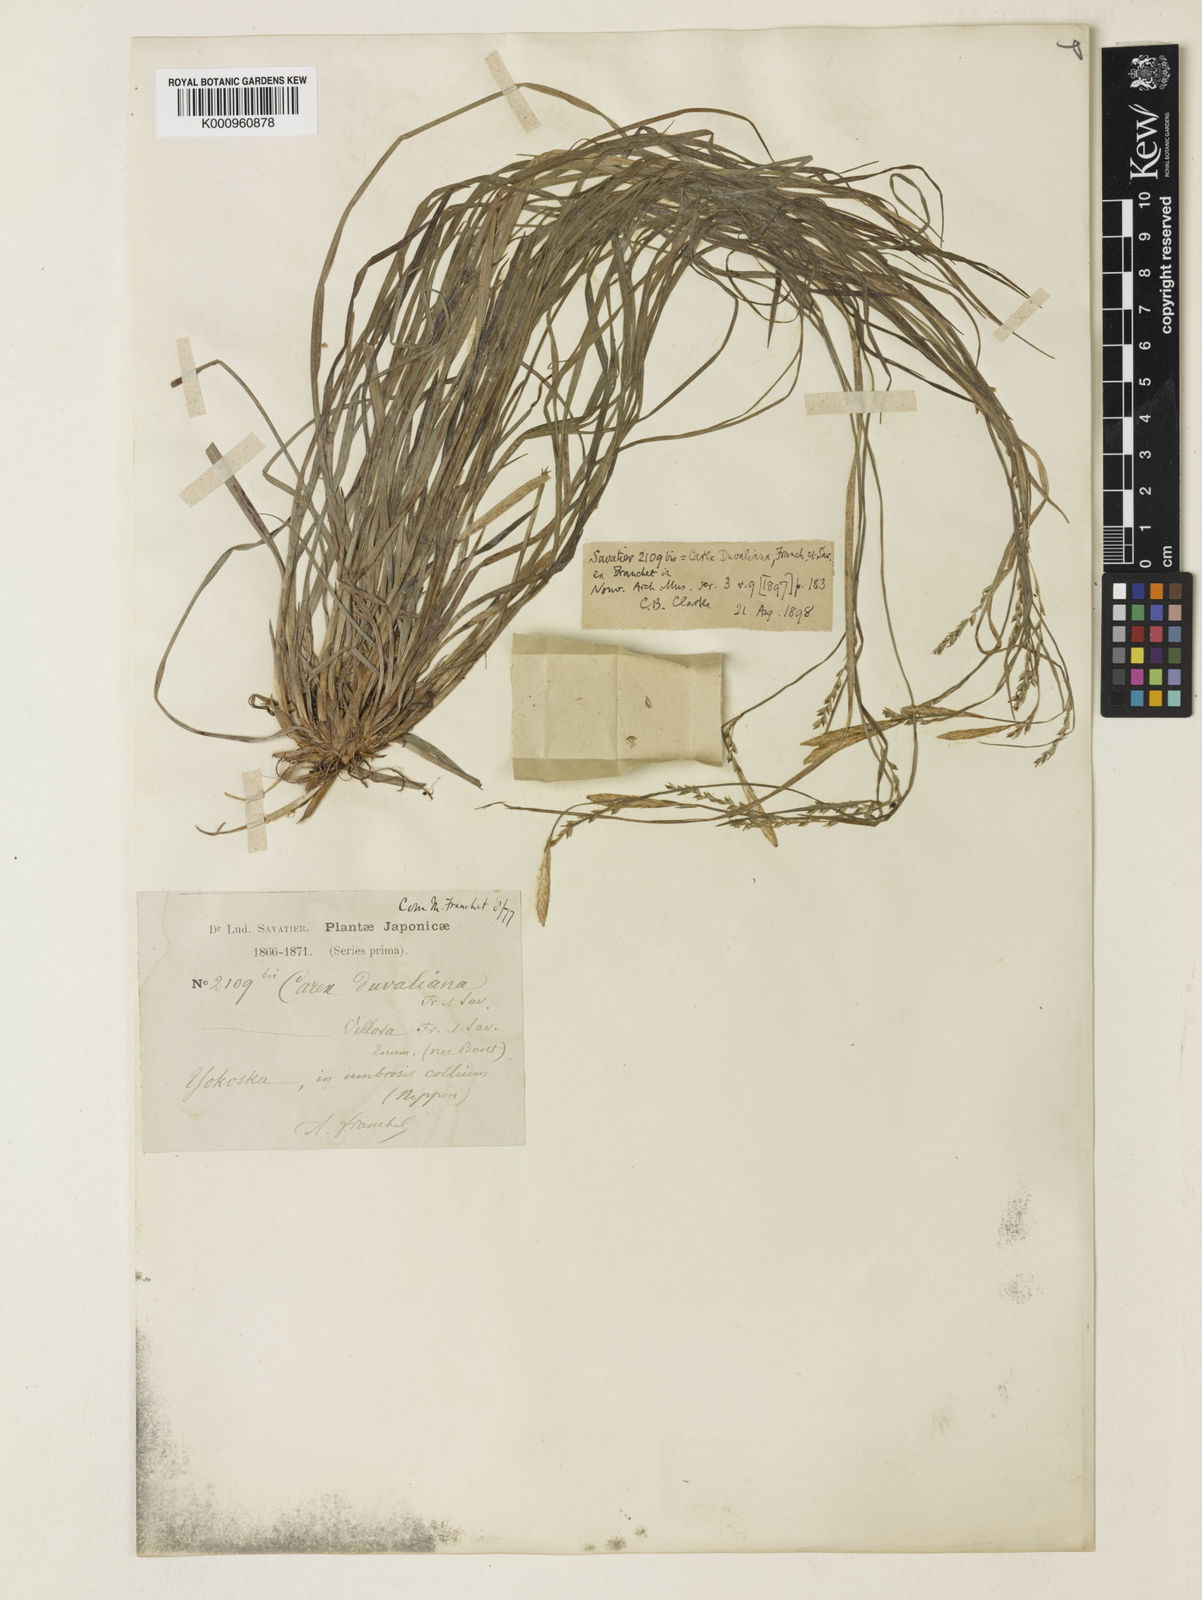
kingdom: Plantae
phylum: Tracheophyta
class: Liliopsida
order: Poales
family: Cyperaceae
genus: Carex
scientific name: Carex muricata
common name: Rough sedge
